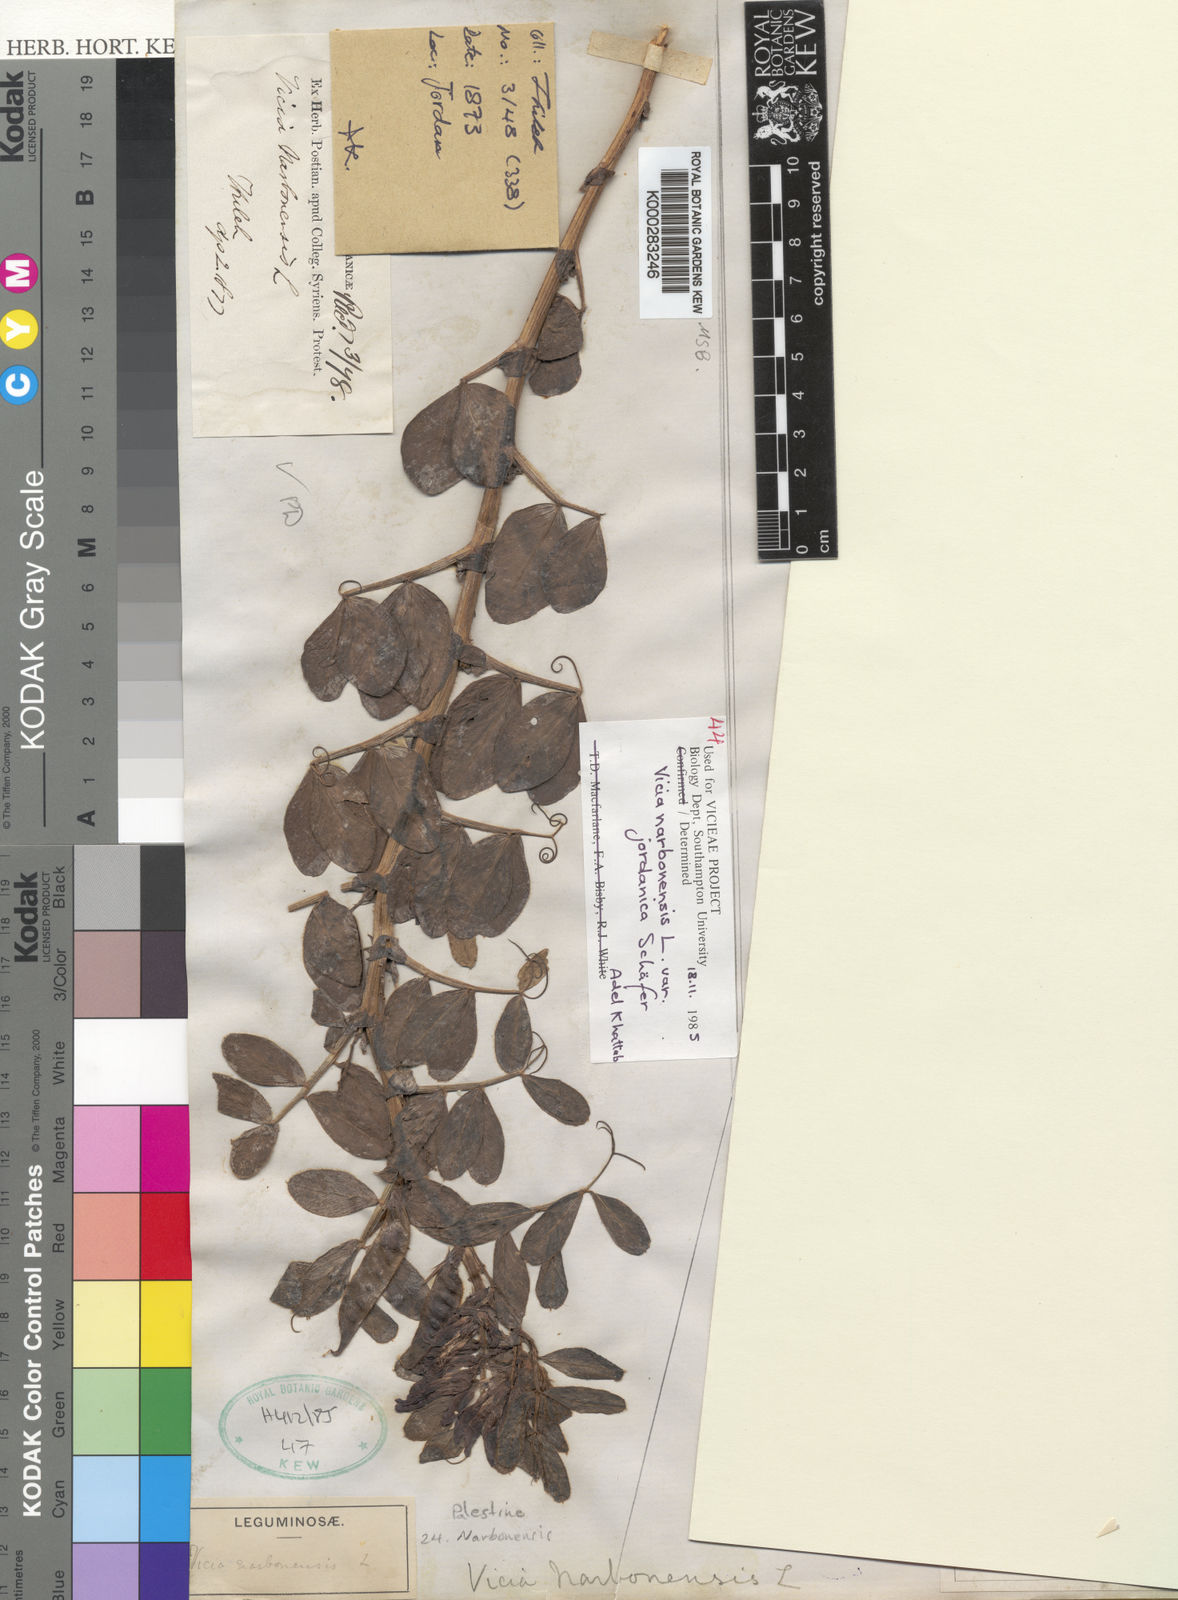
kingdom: Plantae
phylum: Tracheophyta
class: Magnoliopsida
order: Fabales
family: Fabaceae
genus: Vicia
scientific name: Vicia narbonensis
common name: Narbonne vetch
